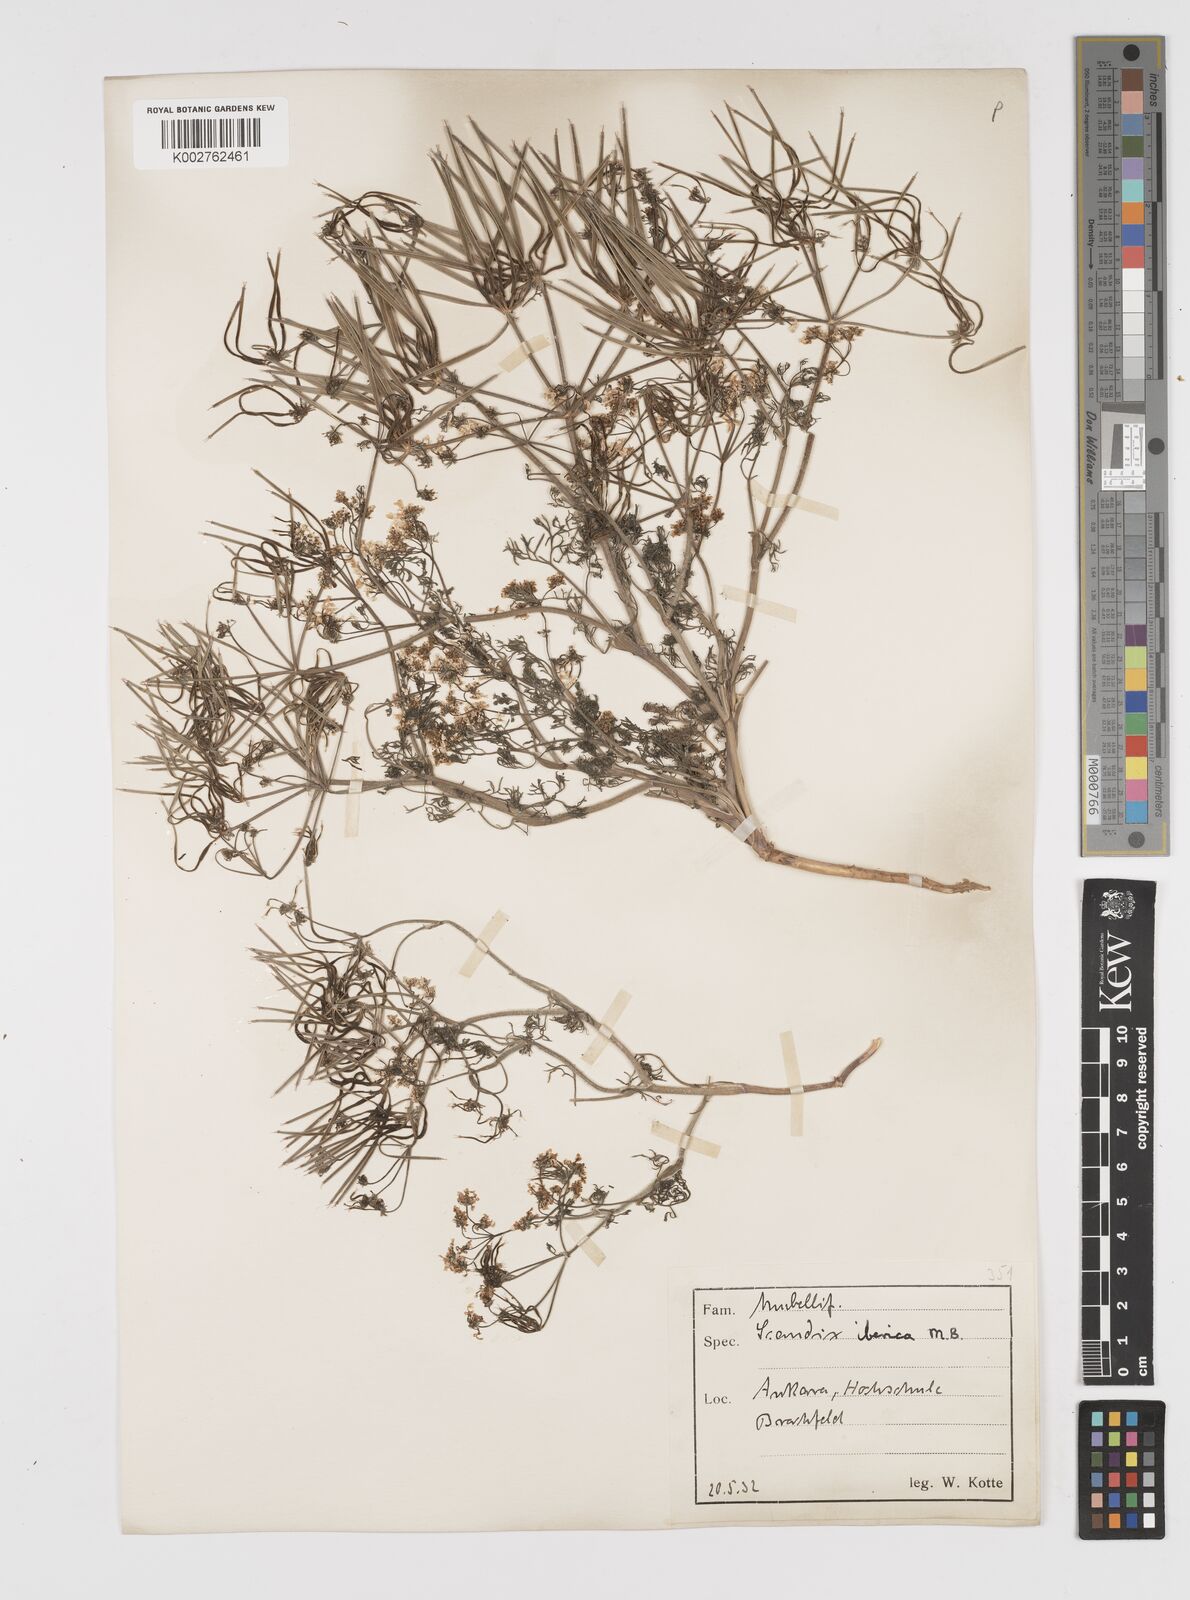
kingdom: Plantae
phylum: Tracheophyta
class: Magnoliopsida
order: Apiales
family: Apiaceae
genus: Scandix
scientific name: Scandix iberica
